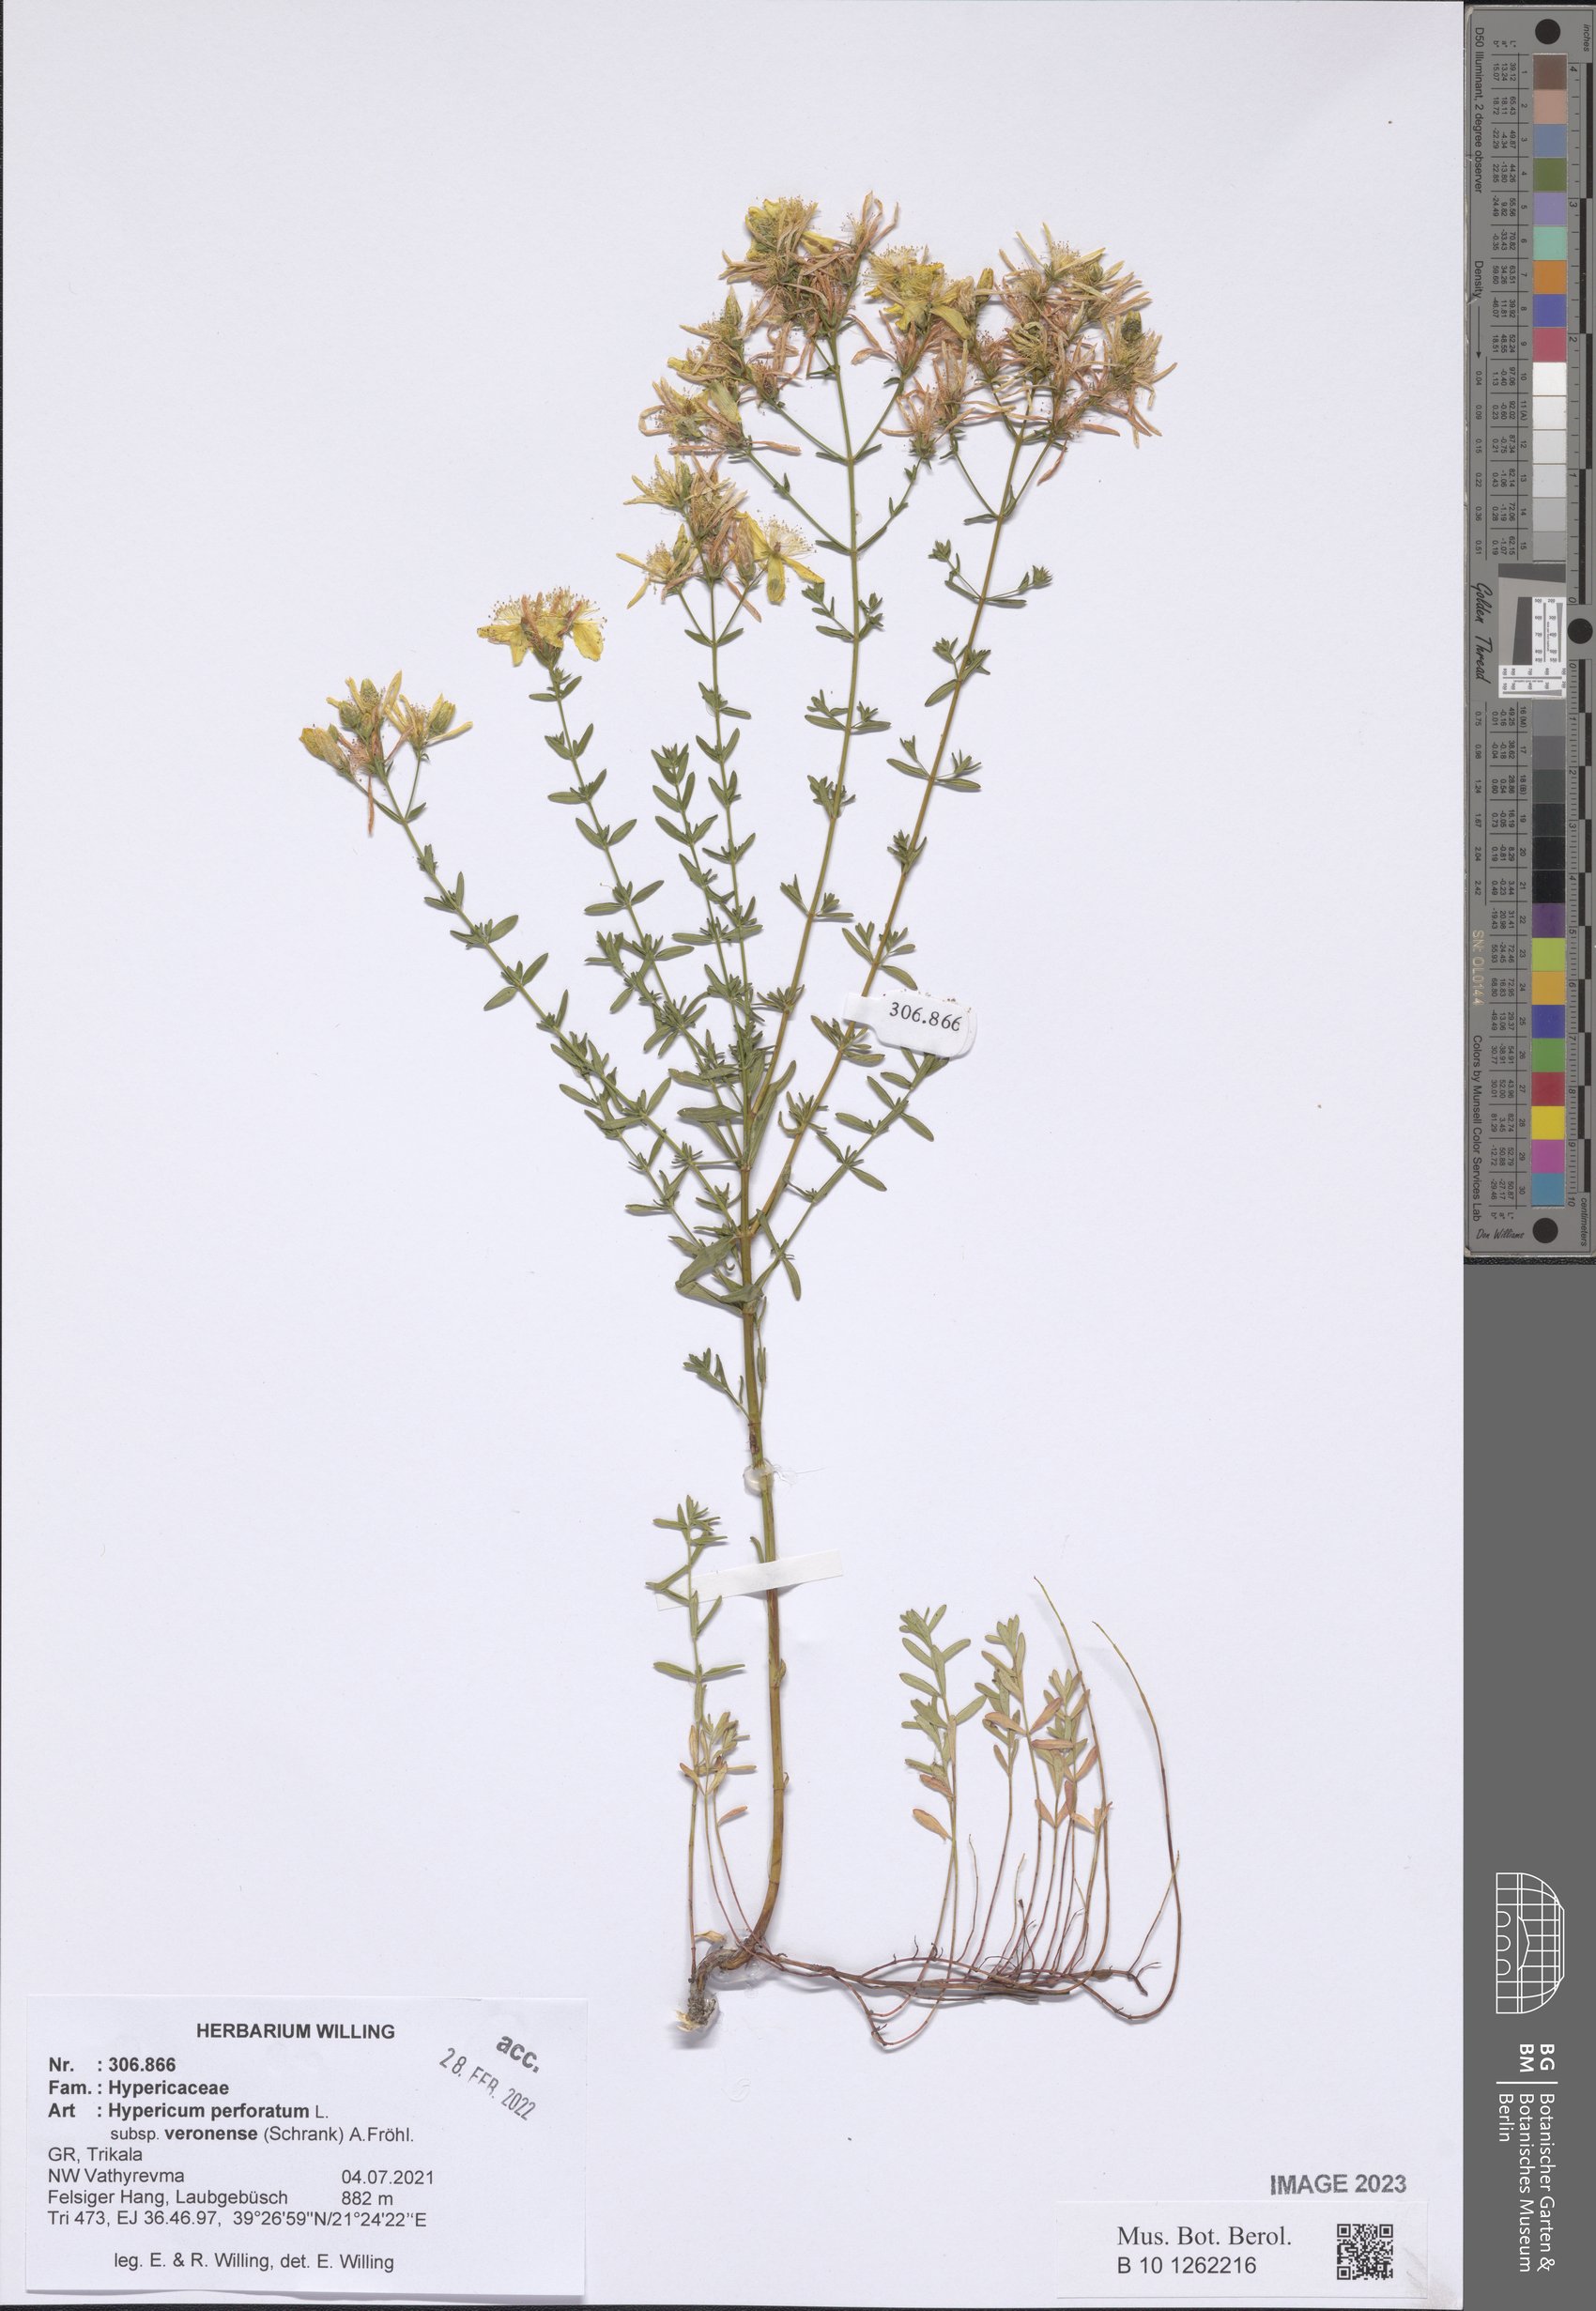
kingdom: Plantae
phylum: Tracheophyta
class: Magnoliopsida
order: Malpighiales
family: Hypericaceae
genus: Hypericum
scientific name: Hypericum veronense
